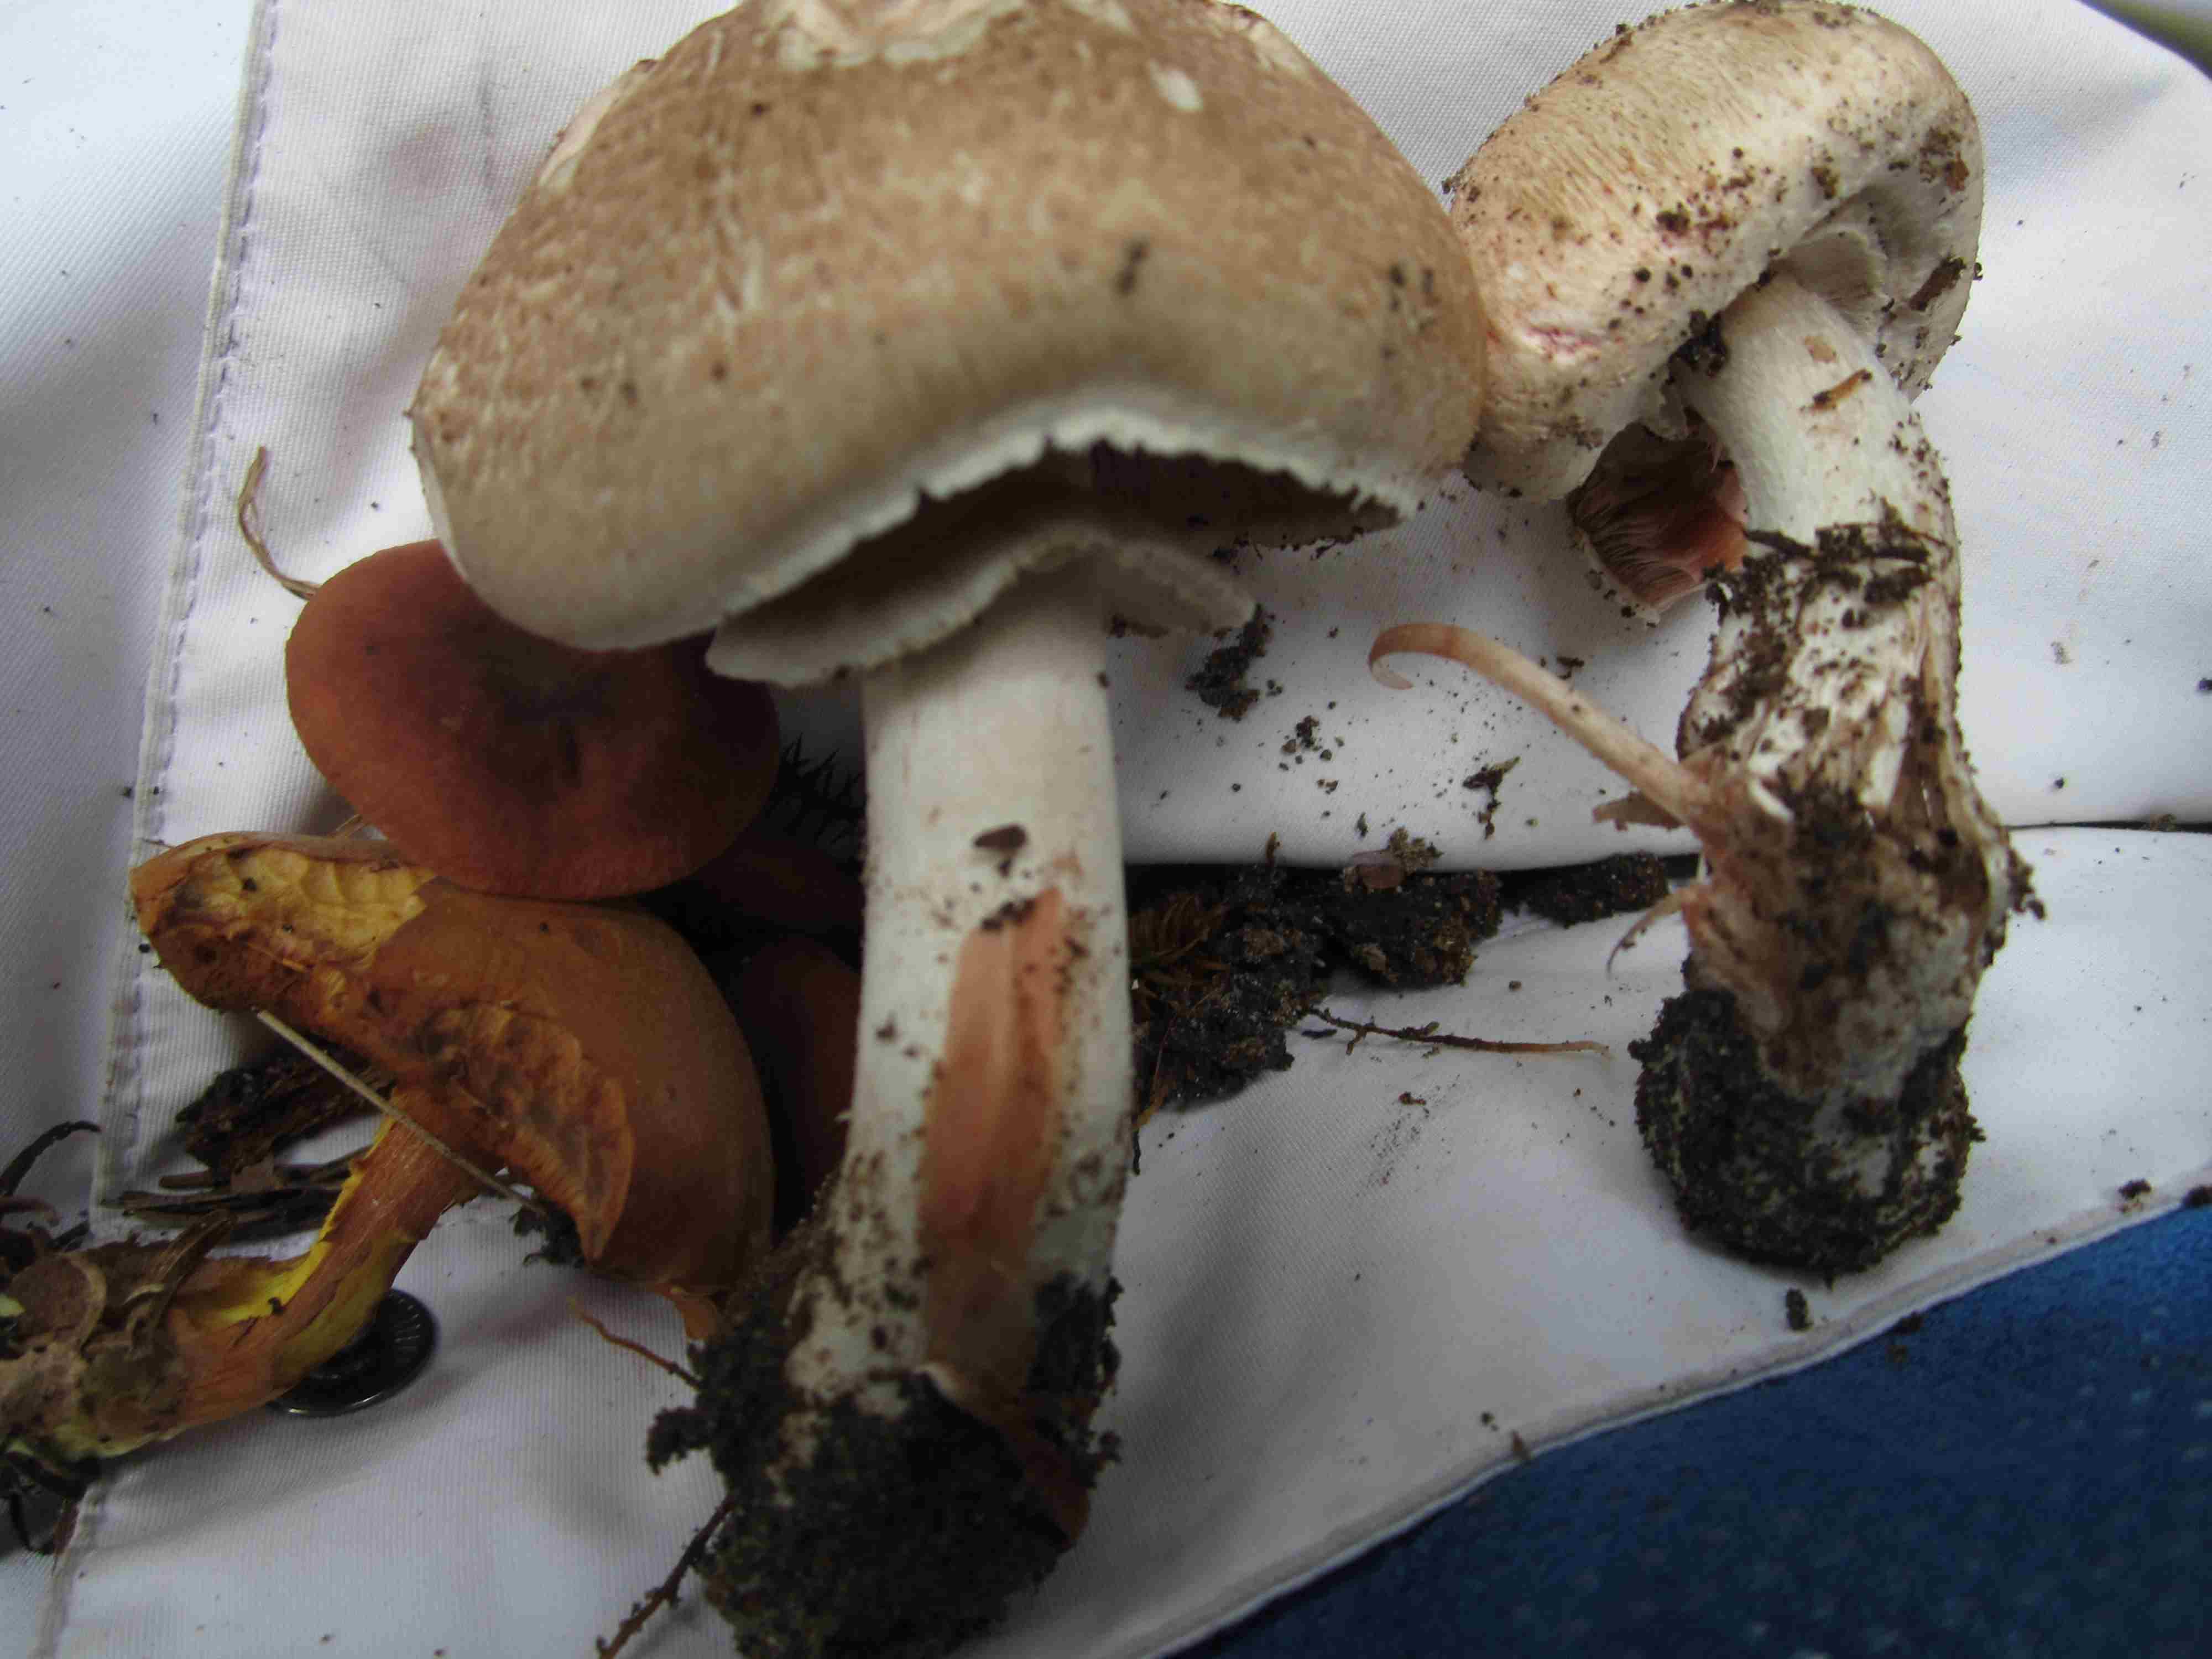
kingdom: Fungi
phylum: Basidiomycota
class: Agaricomycetes
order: Agaricales
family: Agaricaceae
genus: Agaricus
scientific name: Agaricus sylvaticus
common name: lille blod-champignon
